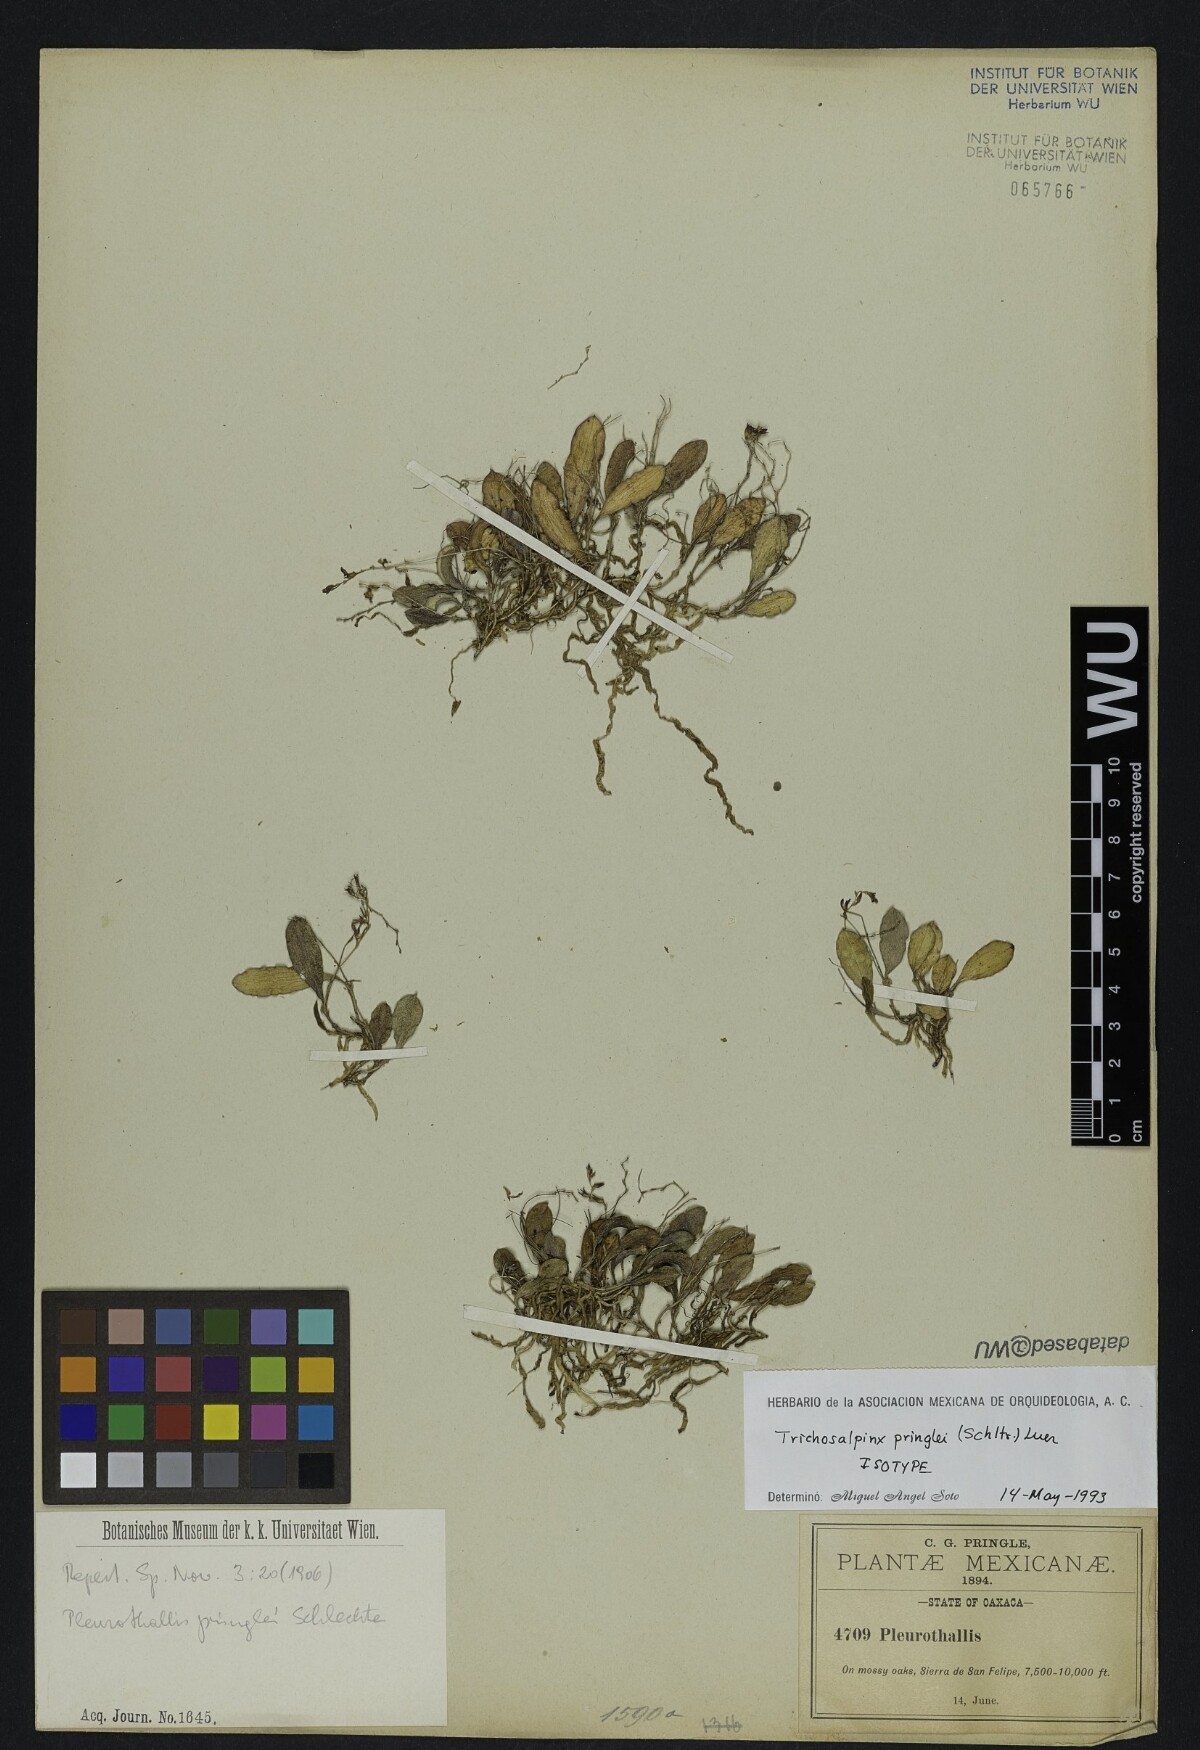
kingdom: Plantae
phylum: Tracheophyta
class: Liliopsida
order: Asparagales
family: Orchidaceae
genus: Trichosalpinx
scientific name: Trichosalpinx pringlei
